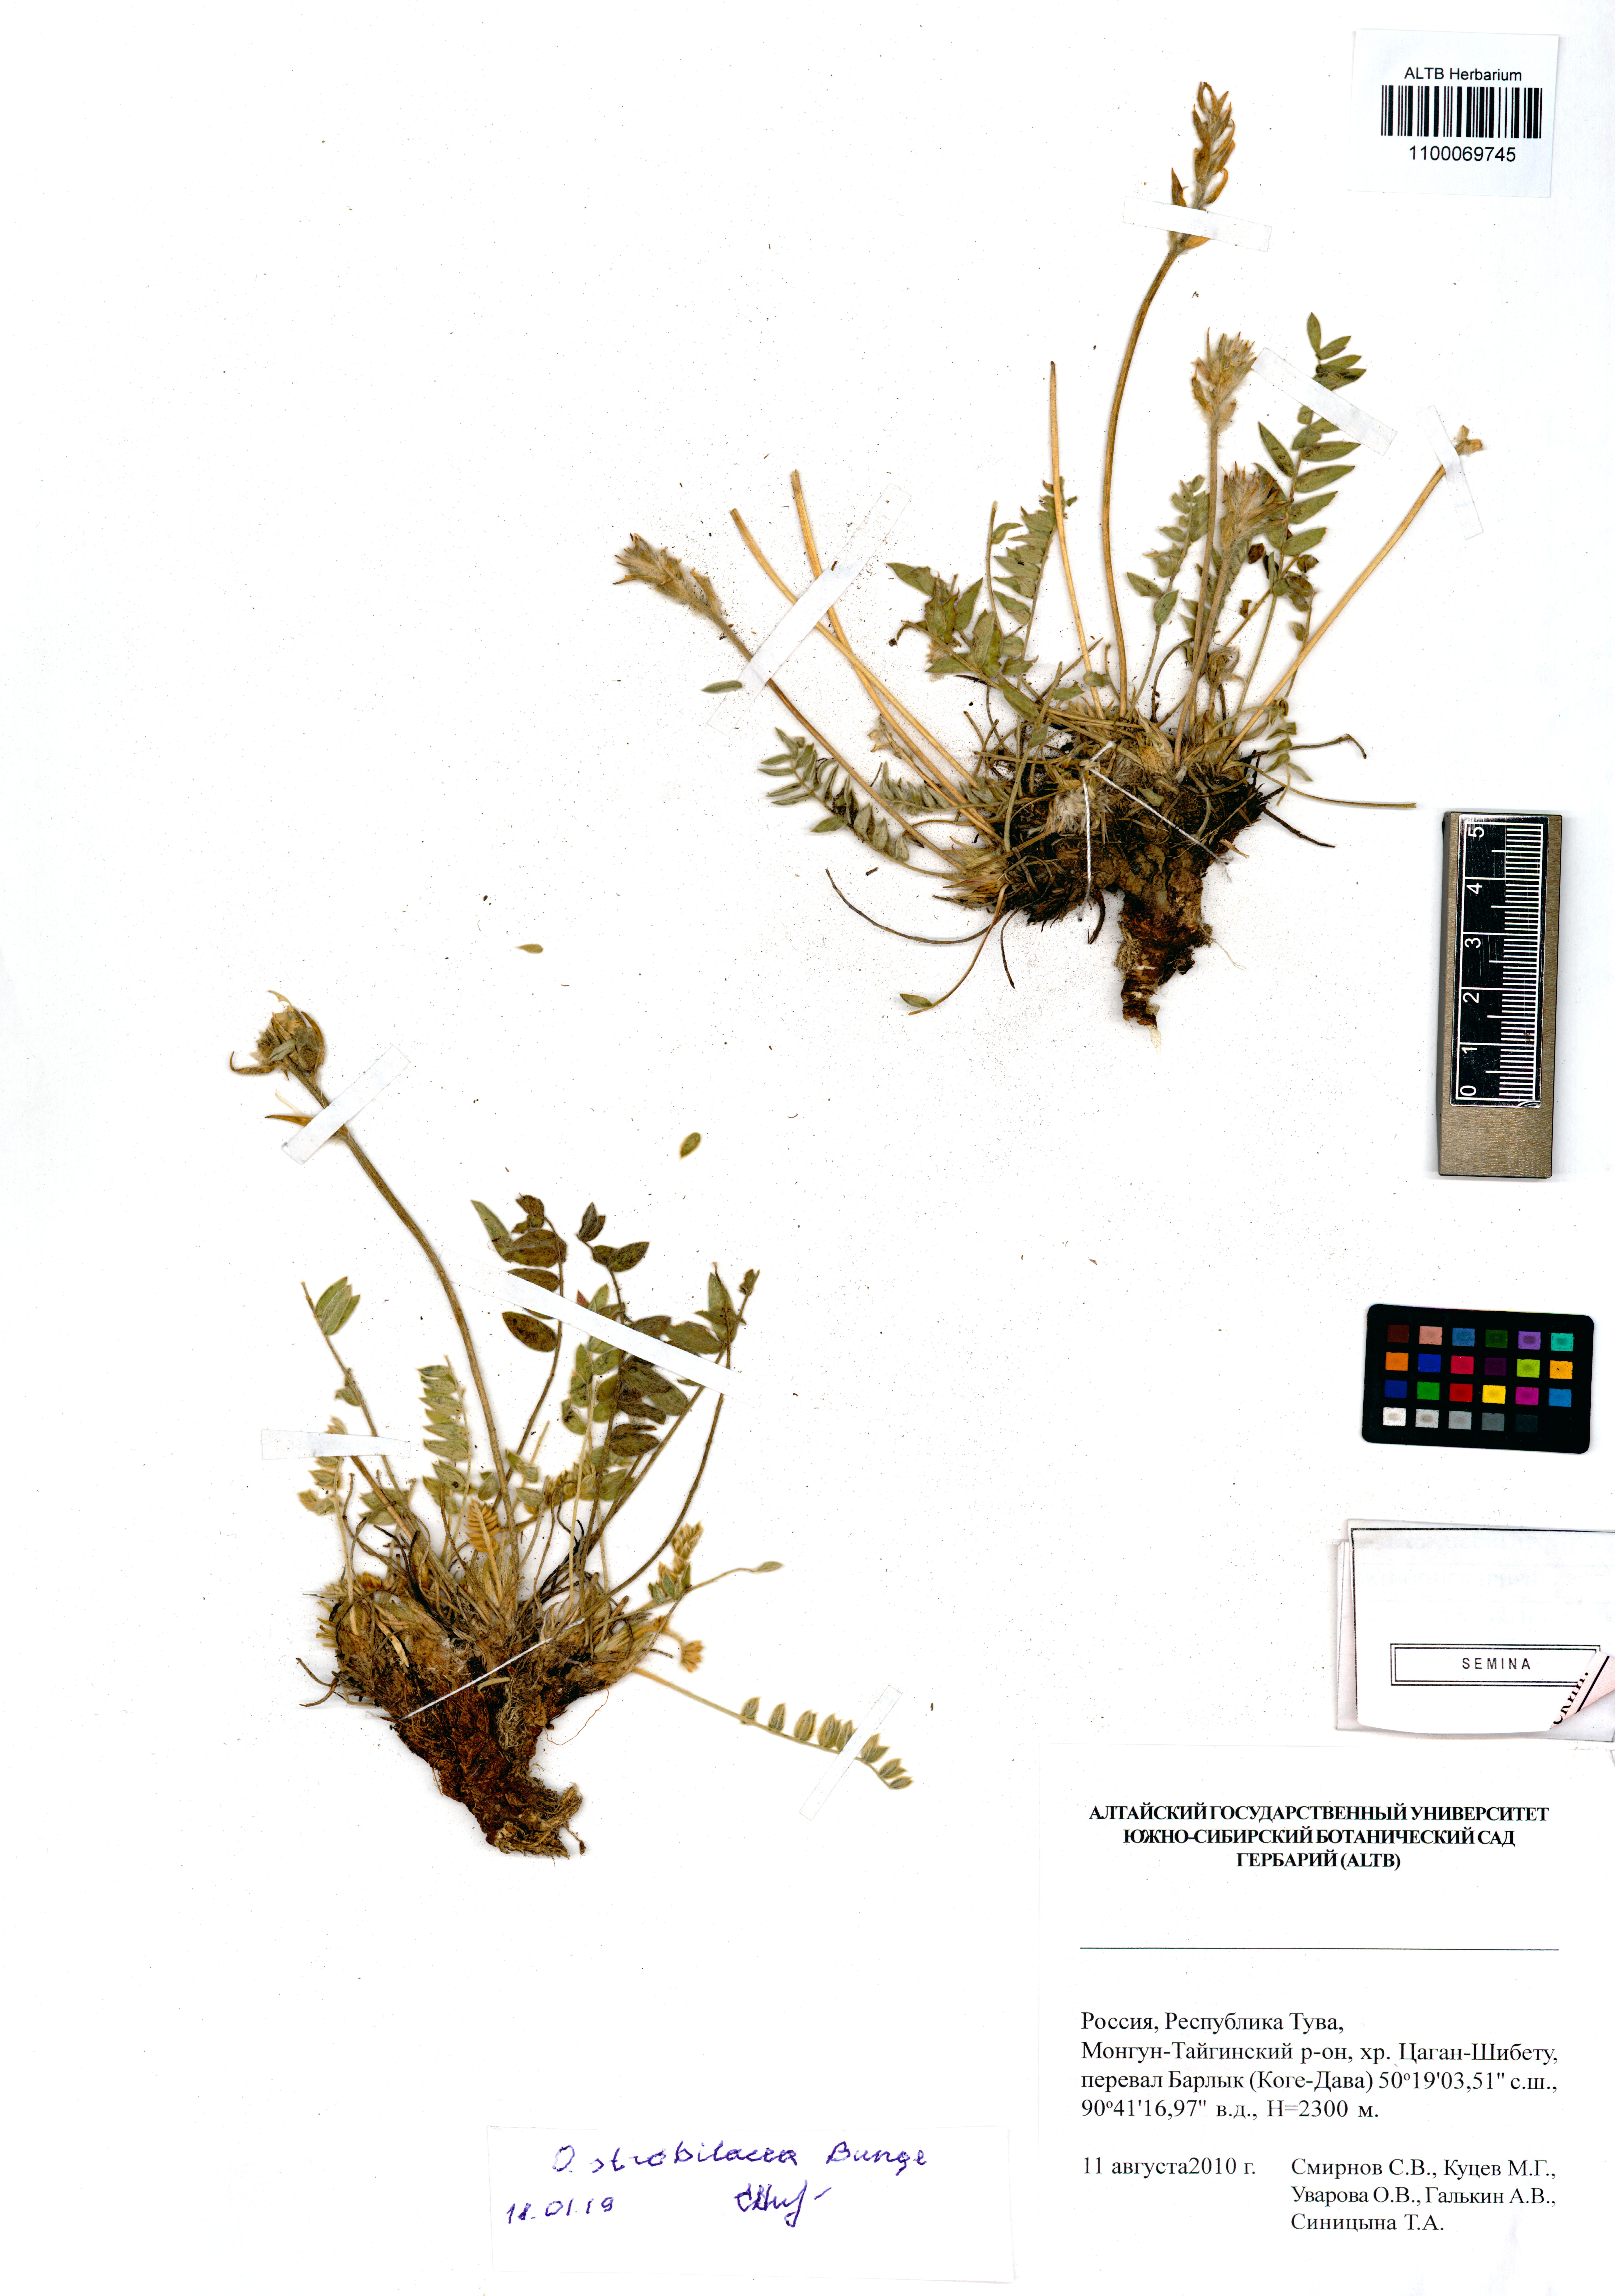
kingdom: Plantae
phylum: Tracheophyta
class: Magnoliopsida
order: Fabales
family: Fabaceae
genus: Oxytropis
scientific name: Oxytropis strobilacea
